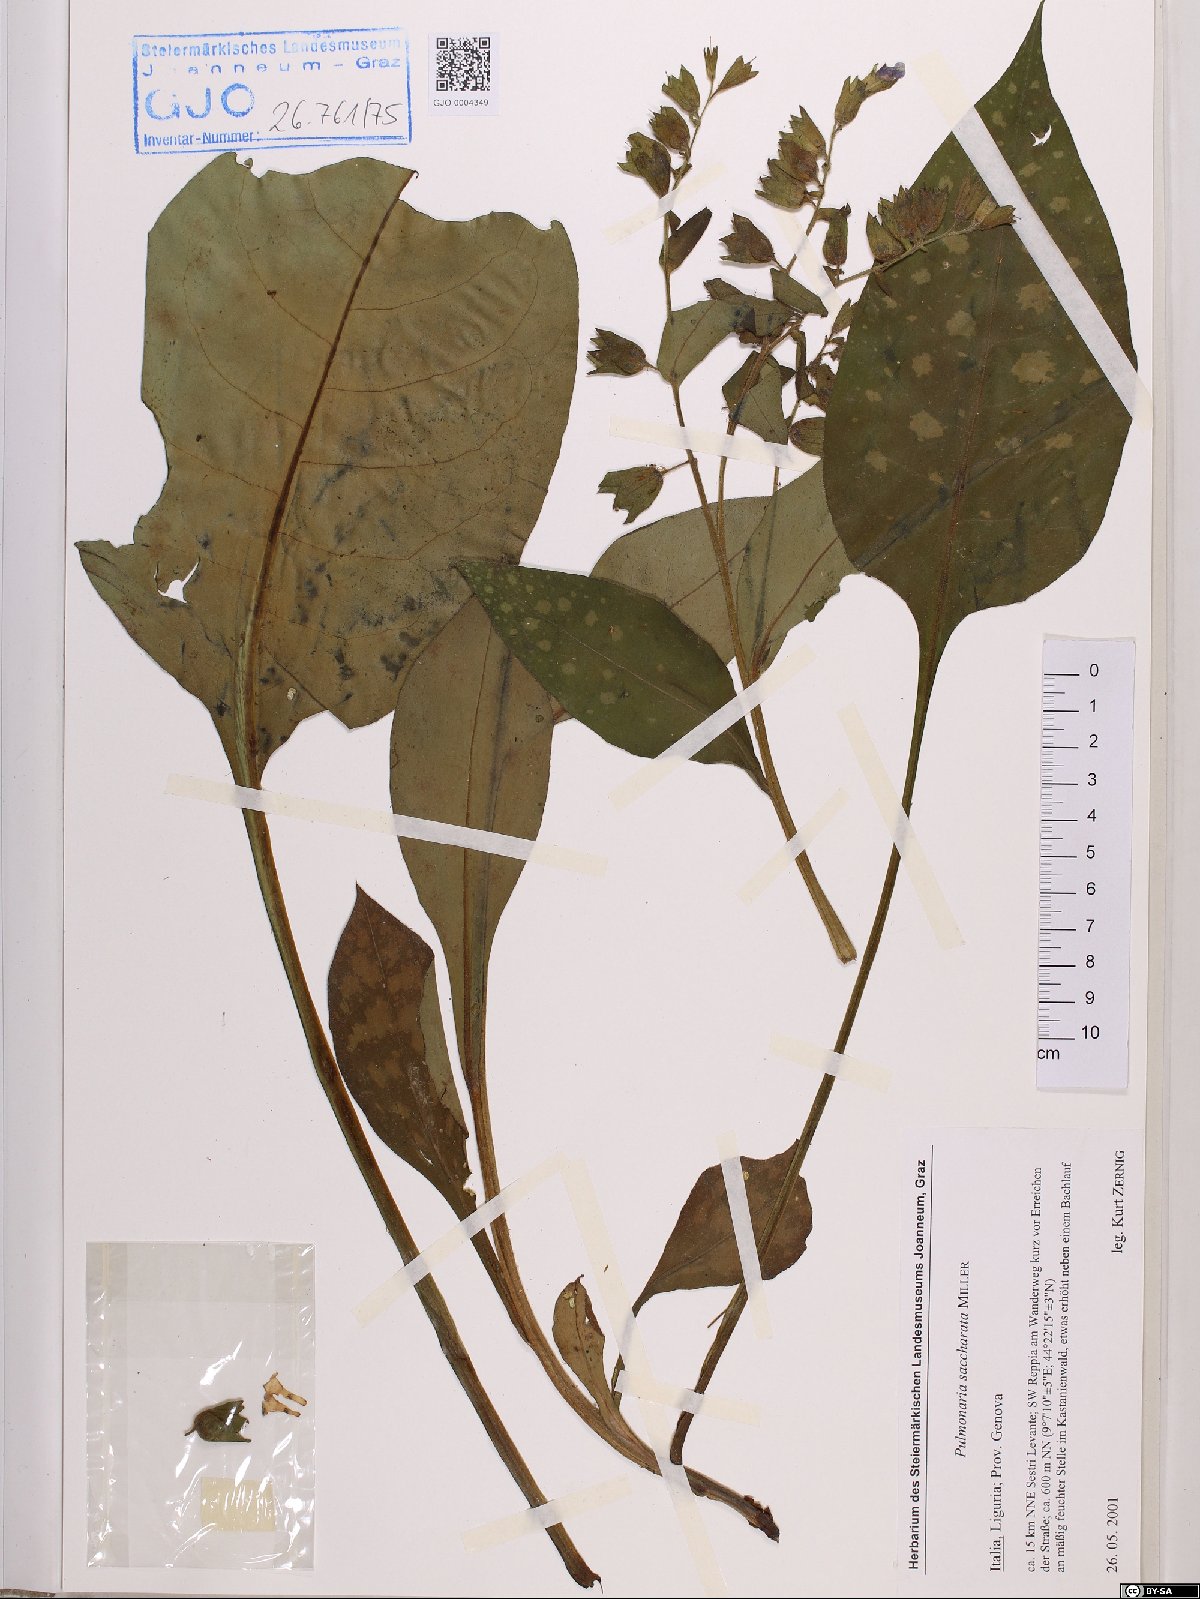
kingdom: Plantae
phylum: Tracheophyta
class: Magnoliopsida
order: Boraginales
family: Boraginaceae
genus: Pulmonaria
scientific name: Pulmonaria saccharata
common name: Bethlehem lungwort
